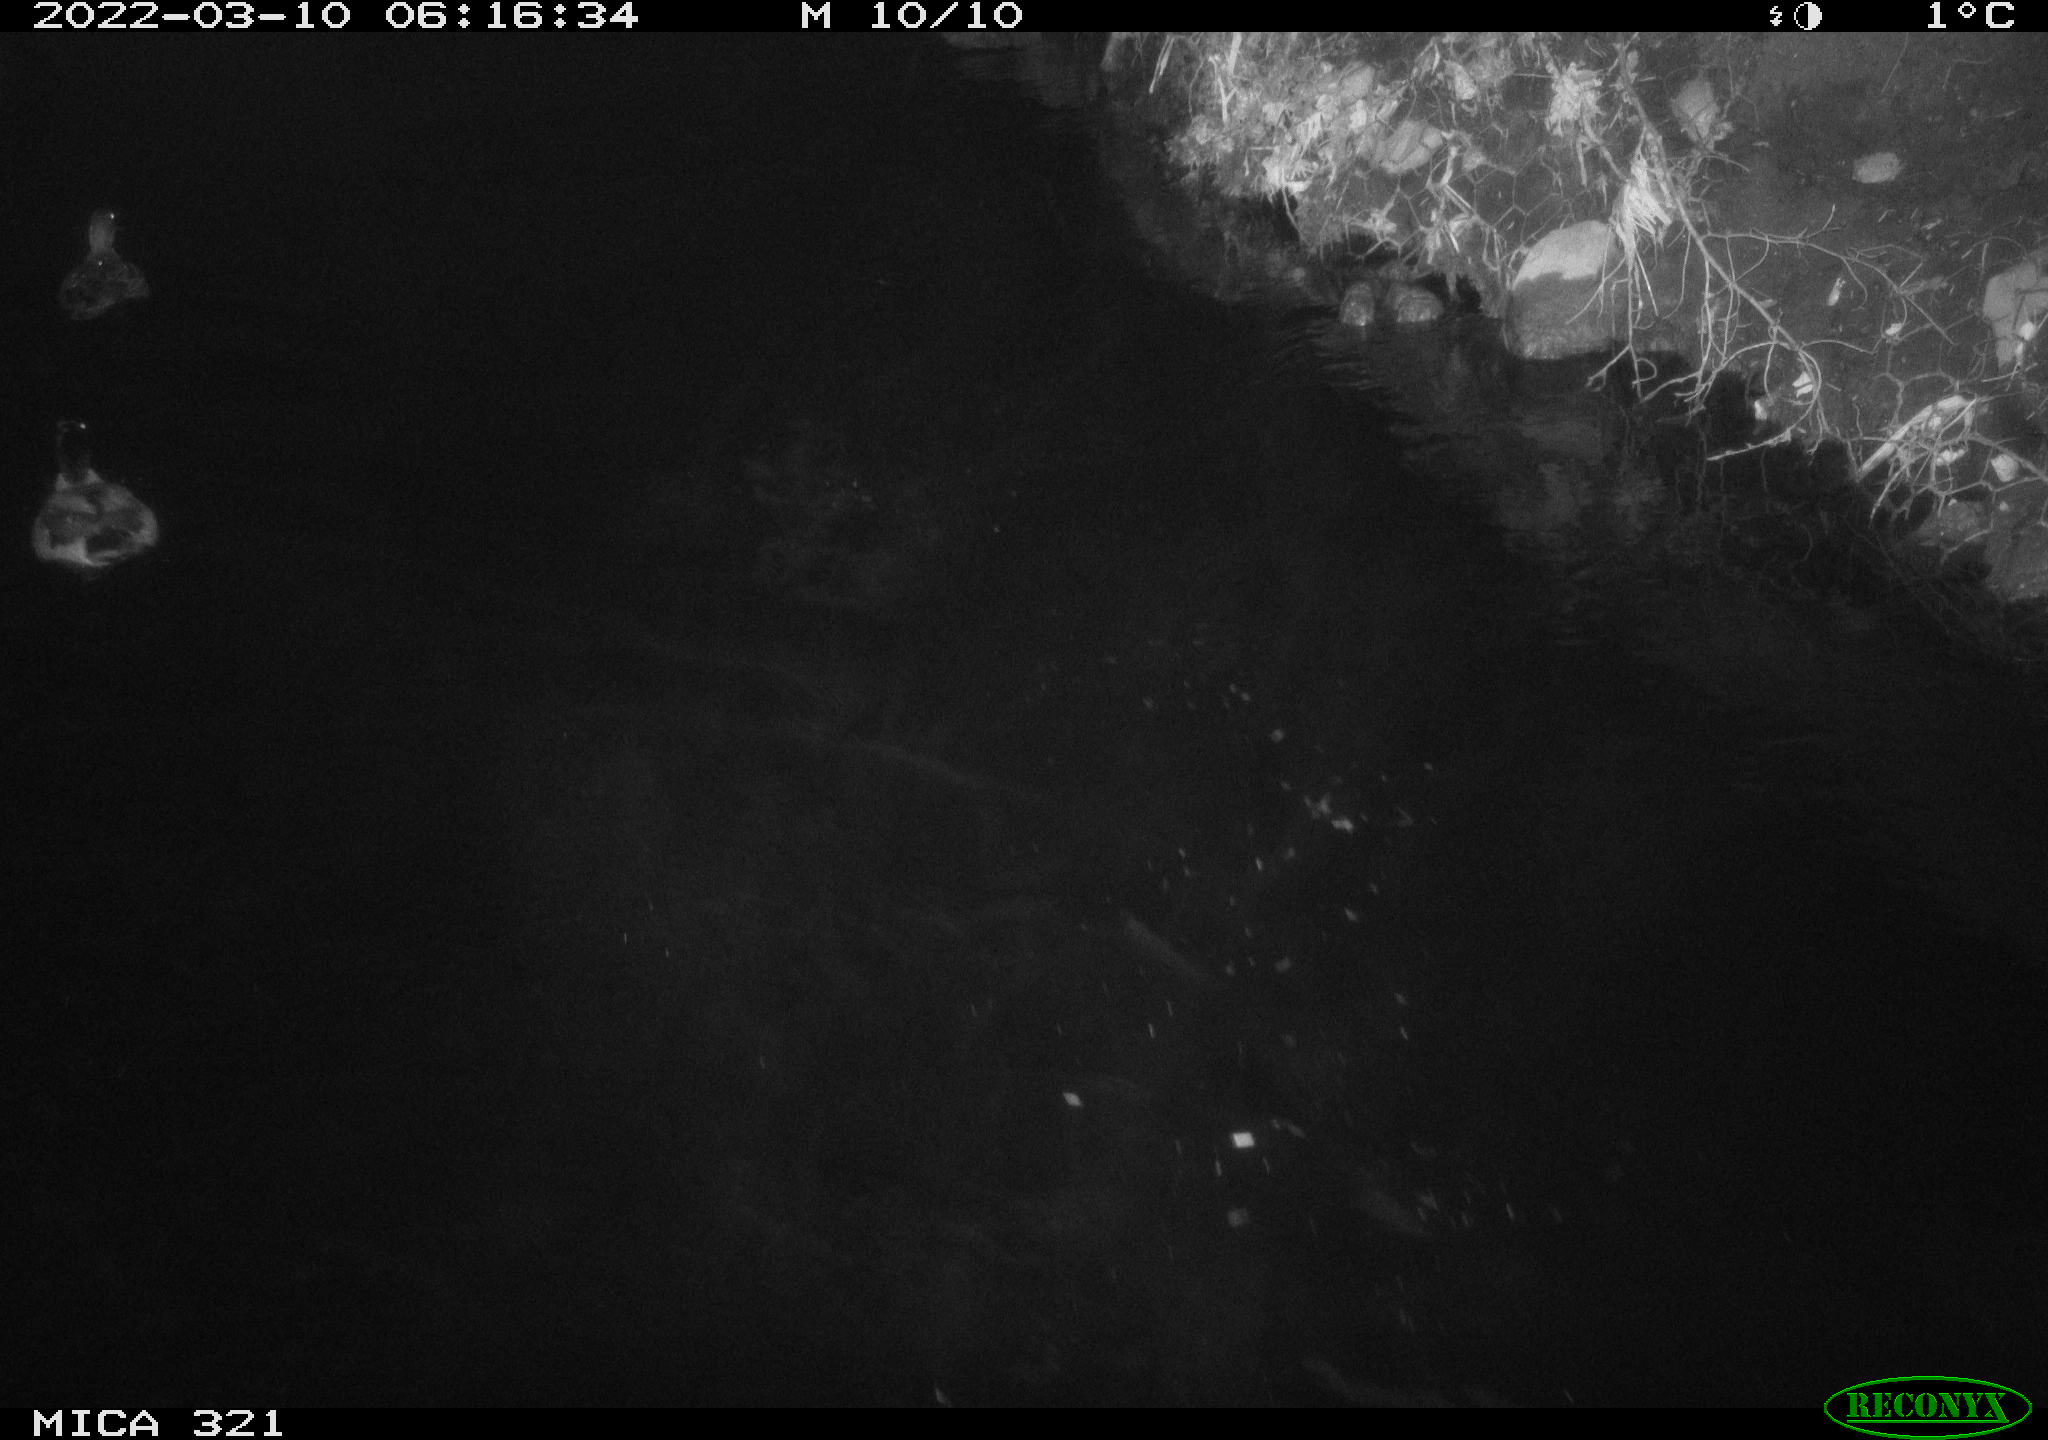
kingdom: Animalia
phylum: Chordata
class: Aves
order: Anseriformes
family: Anatidae
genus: Anas
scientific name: Anas platyrhynchos
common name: Mallard
